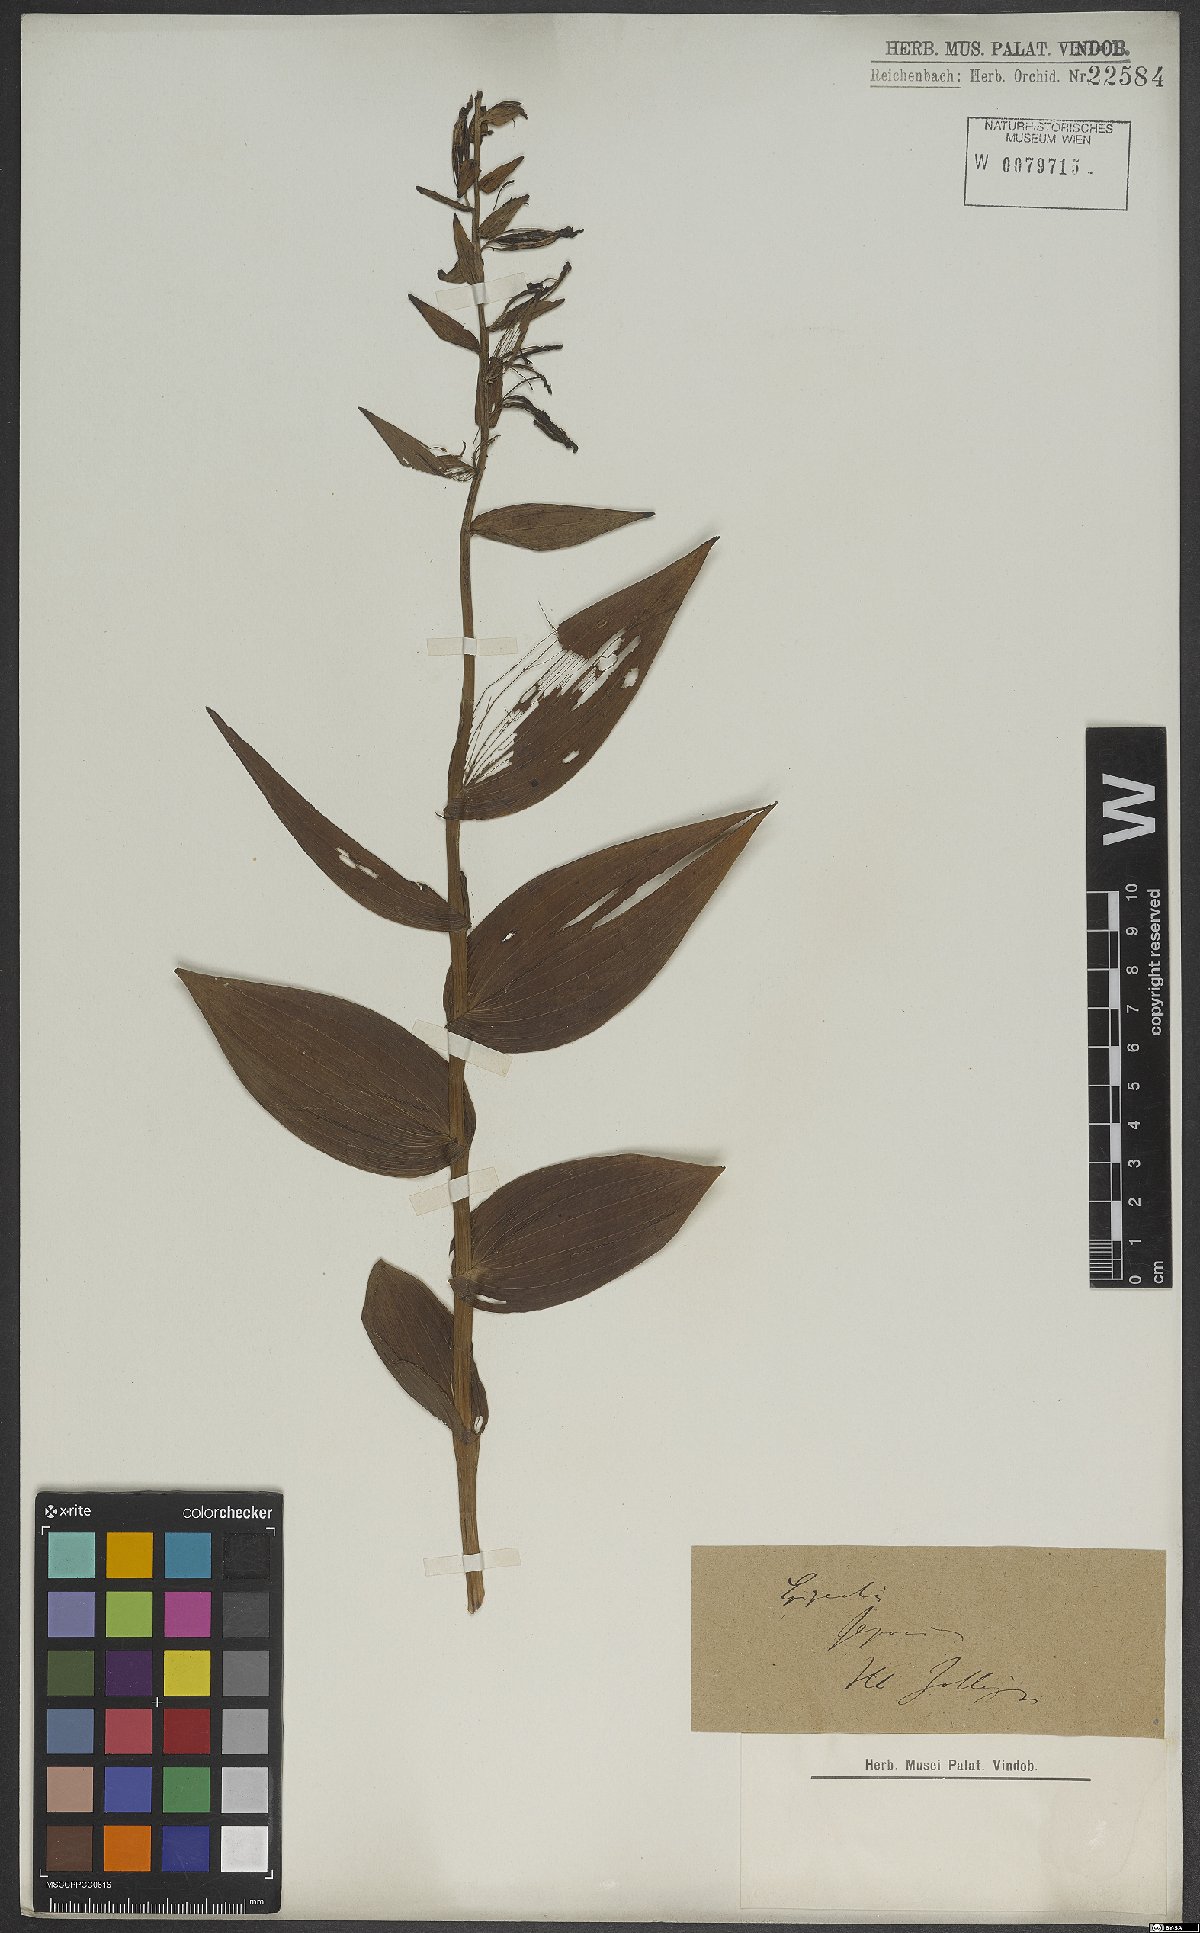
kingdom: Plantae
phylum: Tracheophyta
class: Liliopsida
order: Asparagales
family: Orchidaceae
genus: Epipactis
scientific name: Epipactis helleborine
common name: Broad-leaved helleborine
